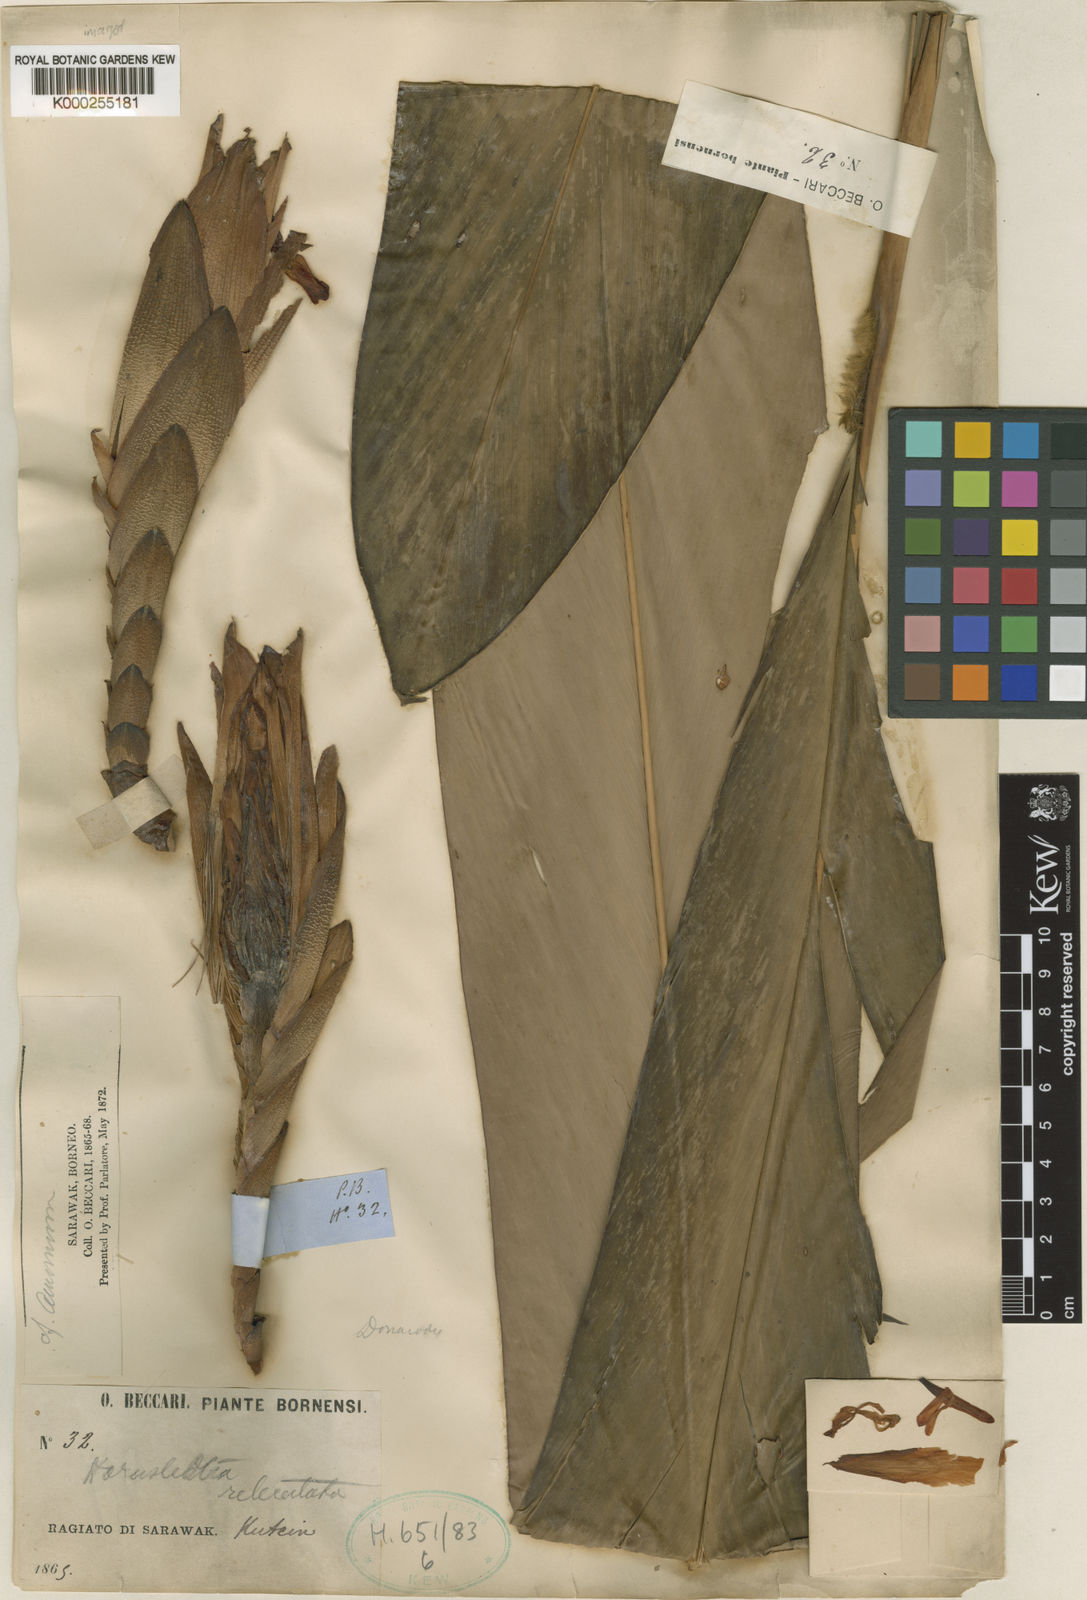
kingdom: Plantae
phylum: Tracheophyta
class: Liliopsida
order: Zingiberales
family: Zingiberaceae
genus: Hornstedtia
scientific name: Hornstedtia reticulata
